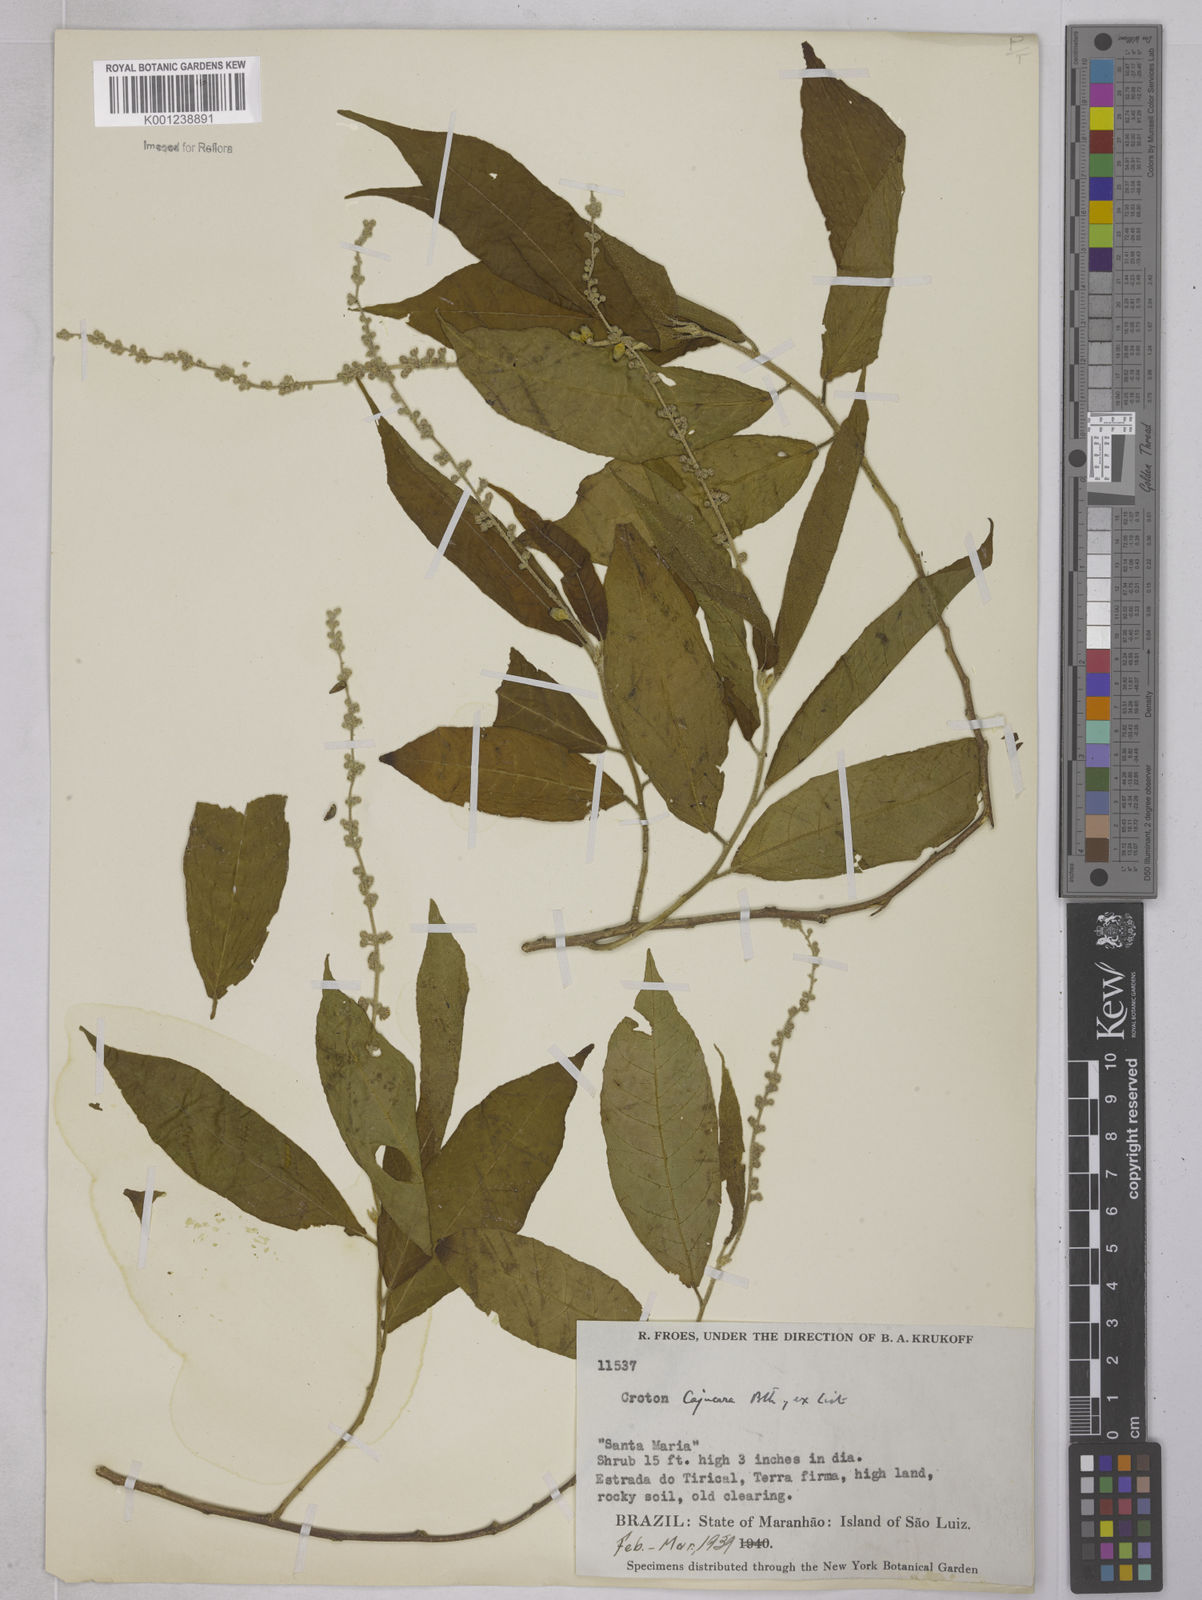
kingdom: Plantae
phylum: Tracheophyta
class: Magnoliopsida
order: Malpighiales
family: Euphorbiaceae
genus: Croton
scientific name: Croton cajucara
